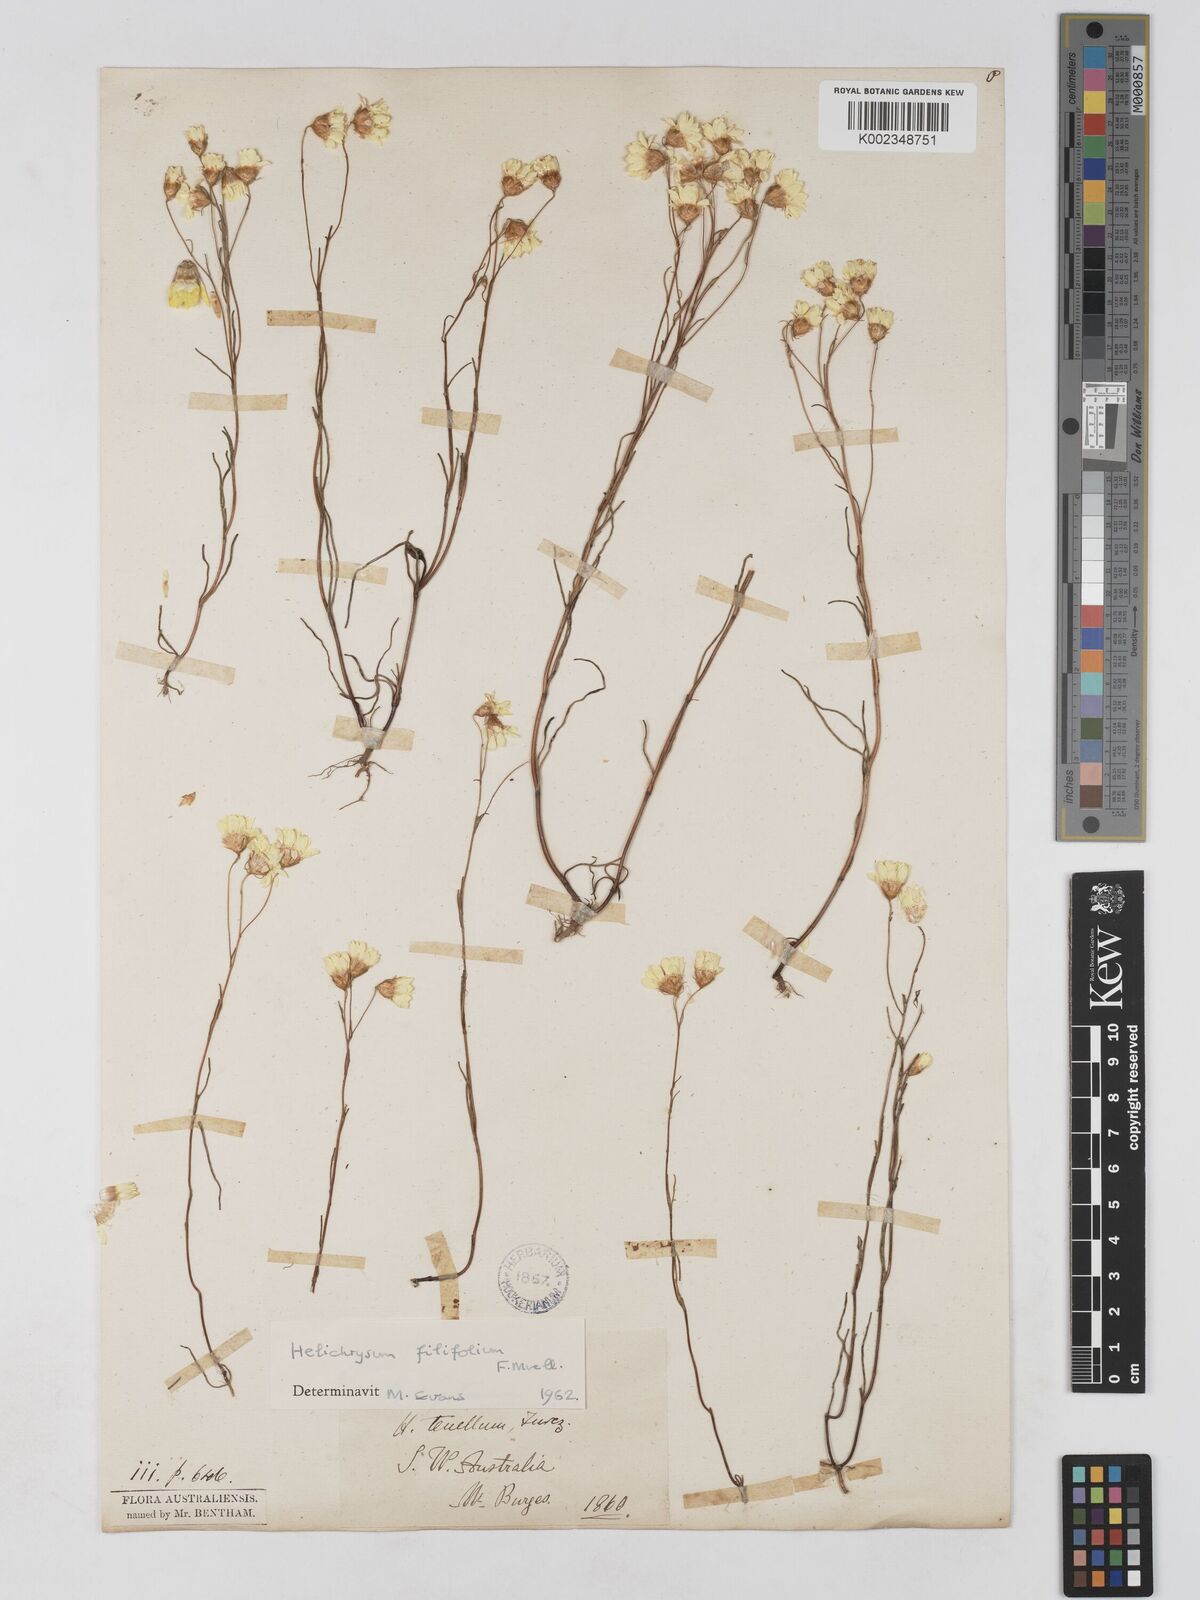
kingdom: Plantae
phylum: Tracheophyta
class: Magnoliopsida
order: Asterales
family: Asteraceae
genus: Schoenia
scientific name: Schoenia filifolia
